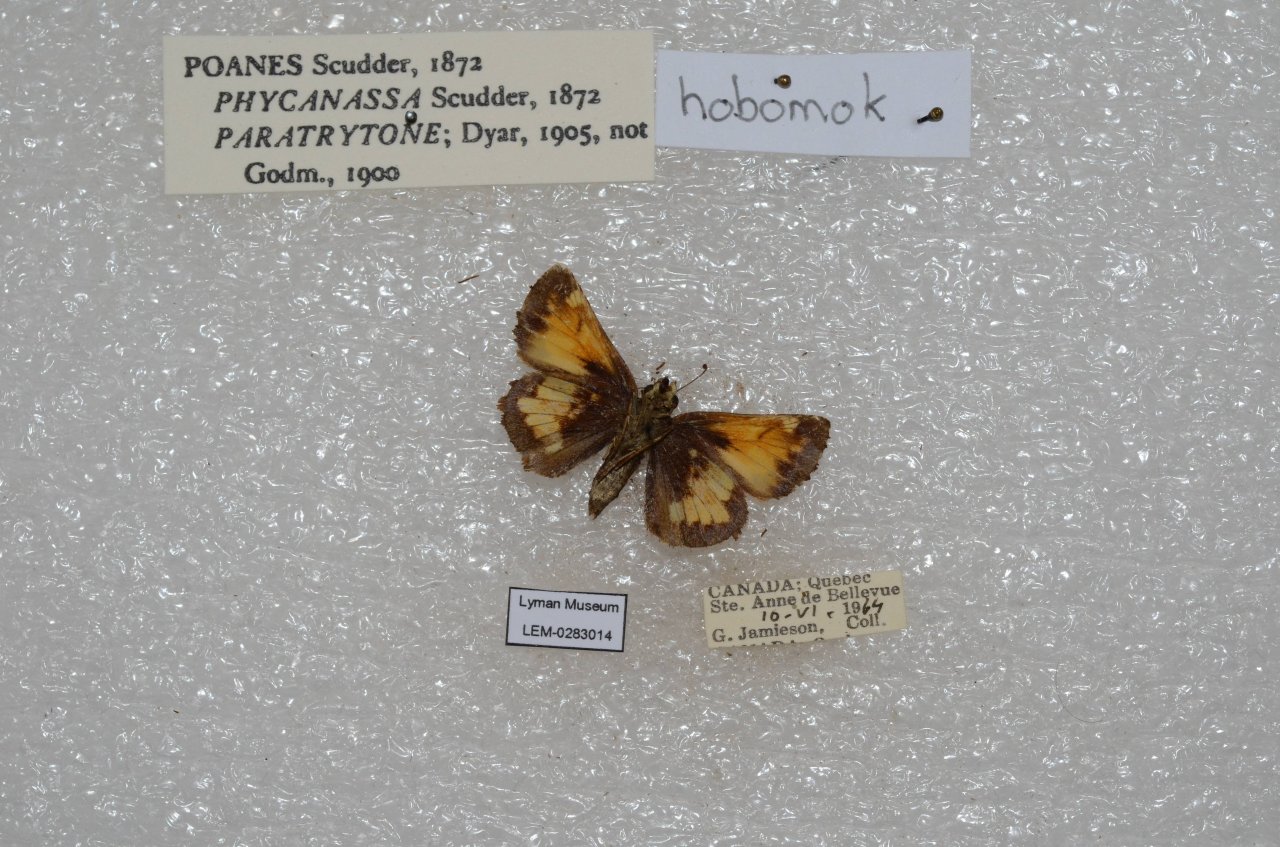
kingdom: Animalia
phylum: Arthropoda
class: Insecta
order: Lepidoptera
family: Hesperiidae
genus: Lon
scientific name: Lon hobomok
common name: Hobomok Skipper
